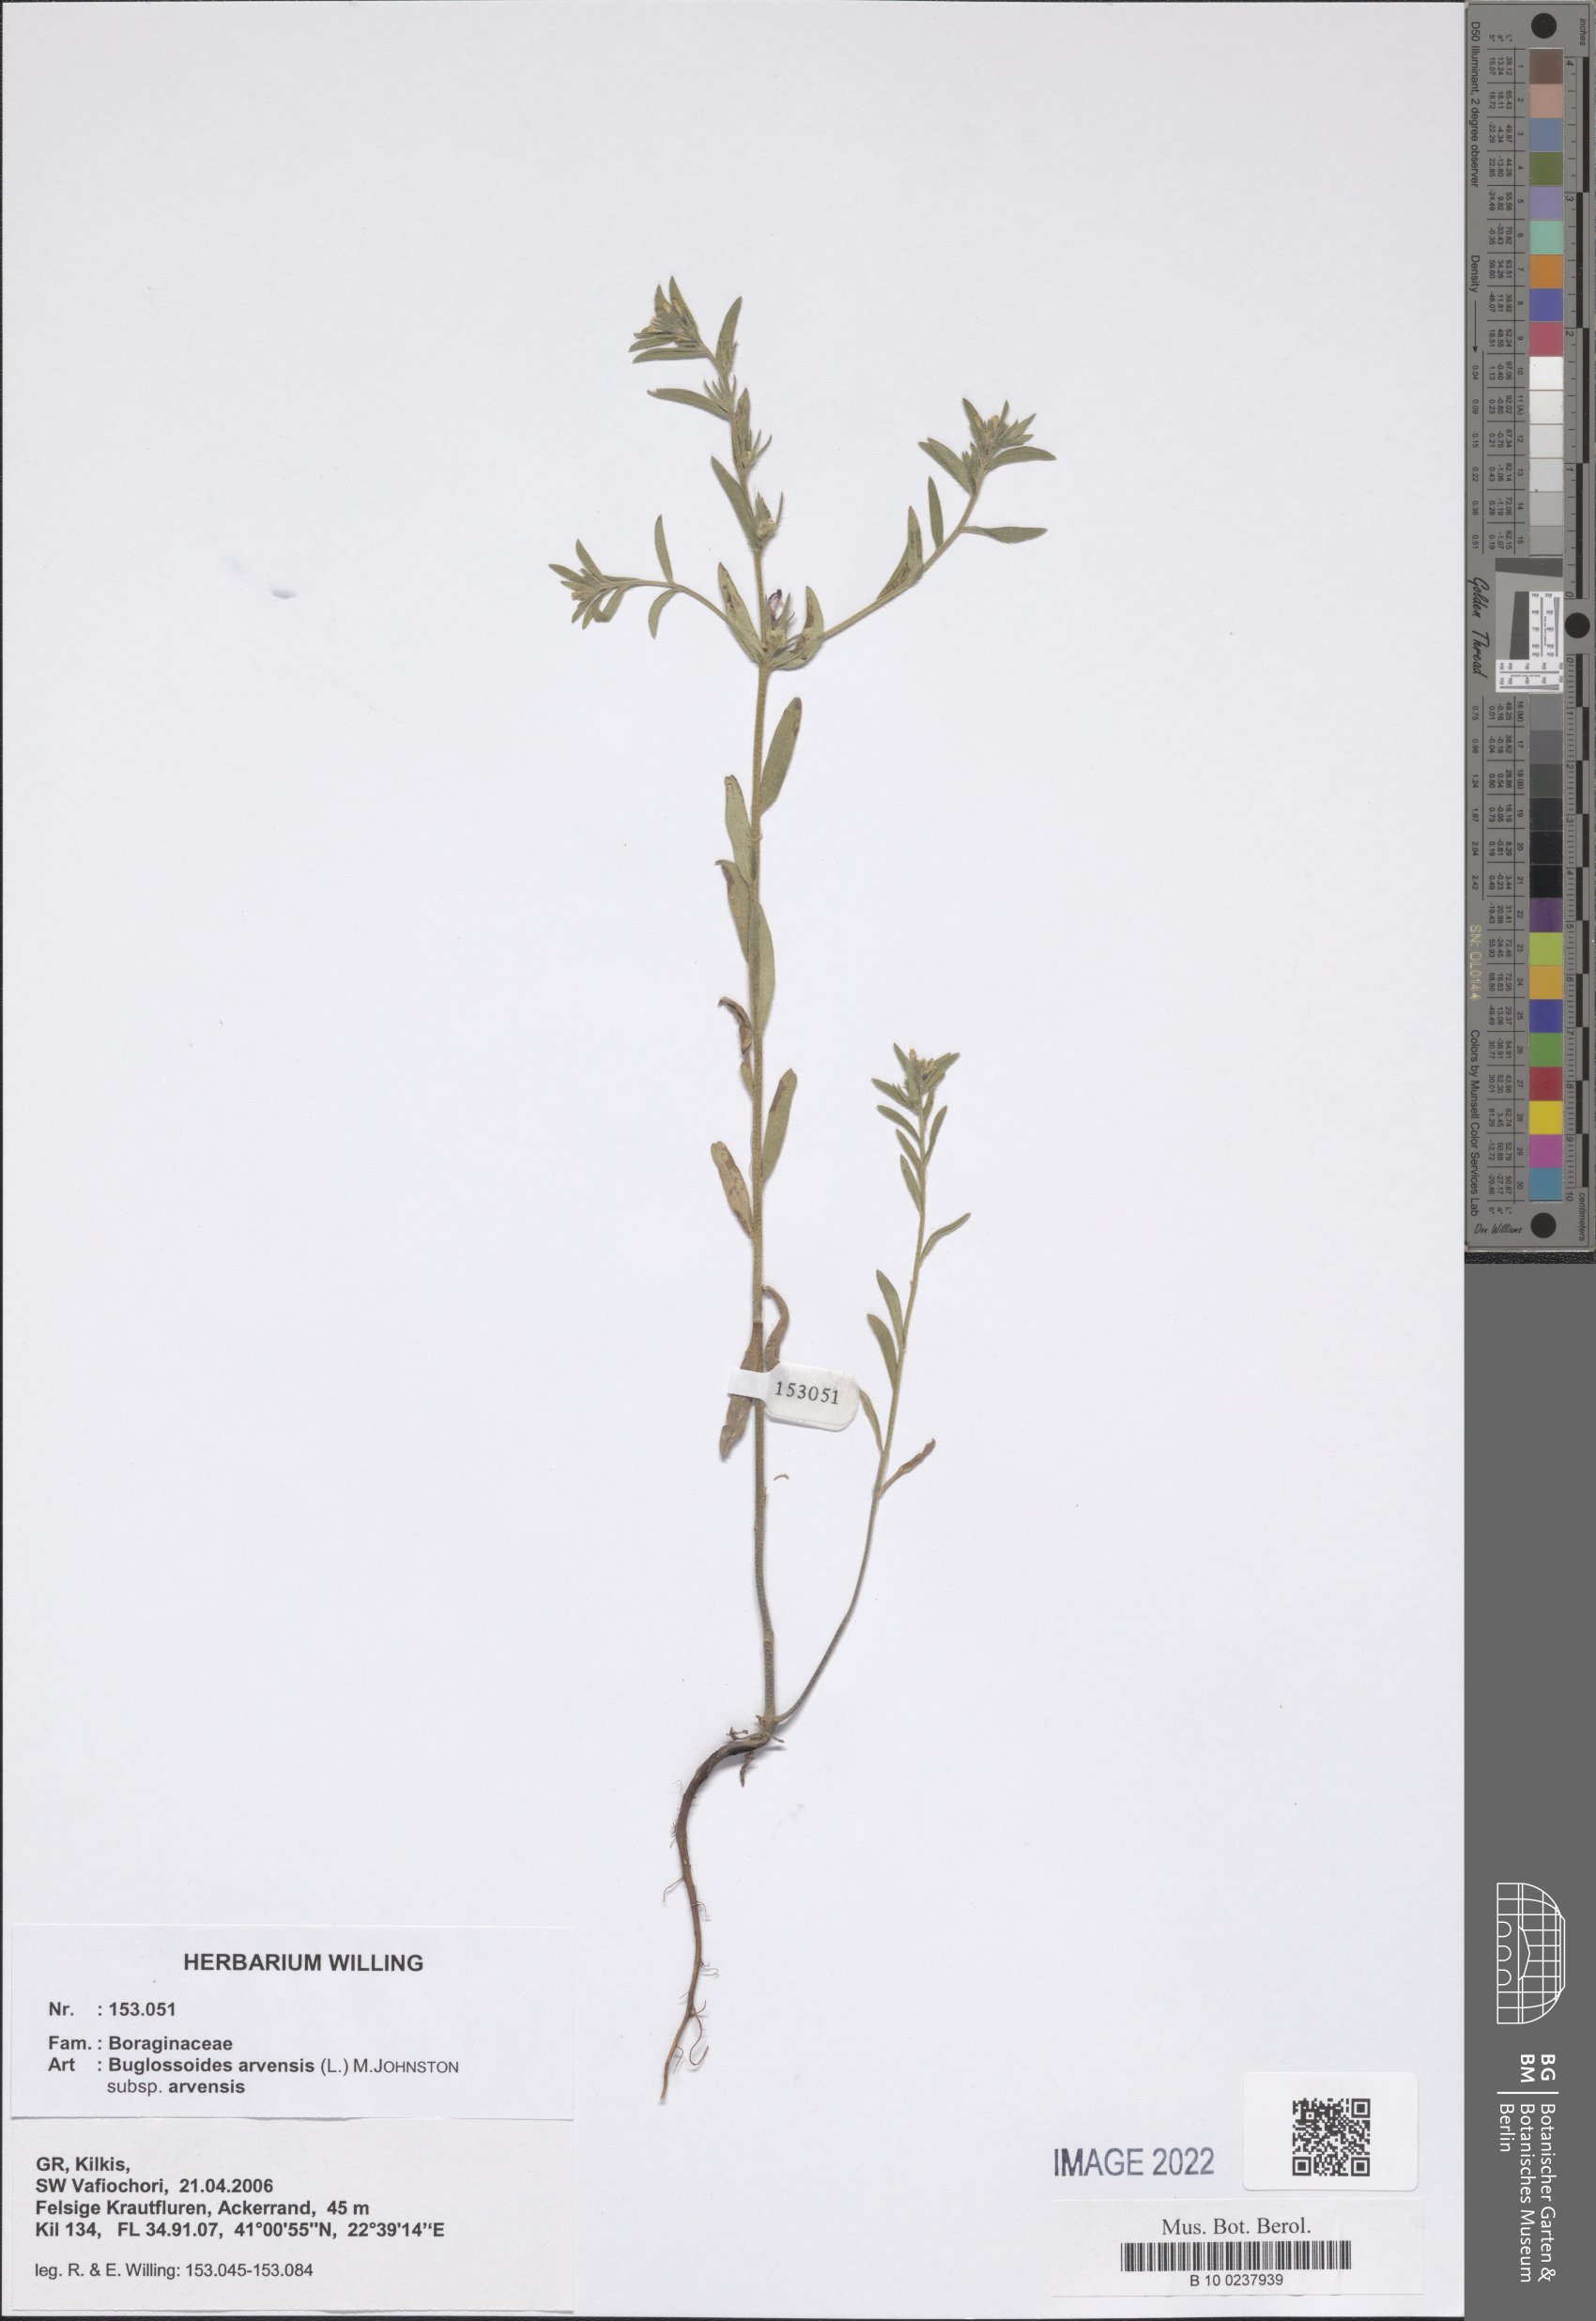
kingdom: Plantae
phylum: Tracheophyta
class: Magnoliopsida
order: Boraginales
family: Boraginaceae
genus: Buglossoides
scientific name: Buglossoides arvensis
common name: Corn gromwell
